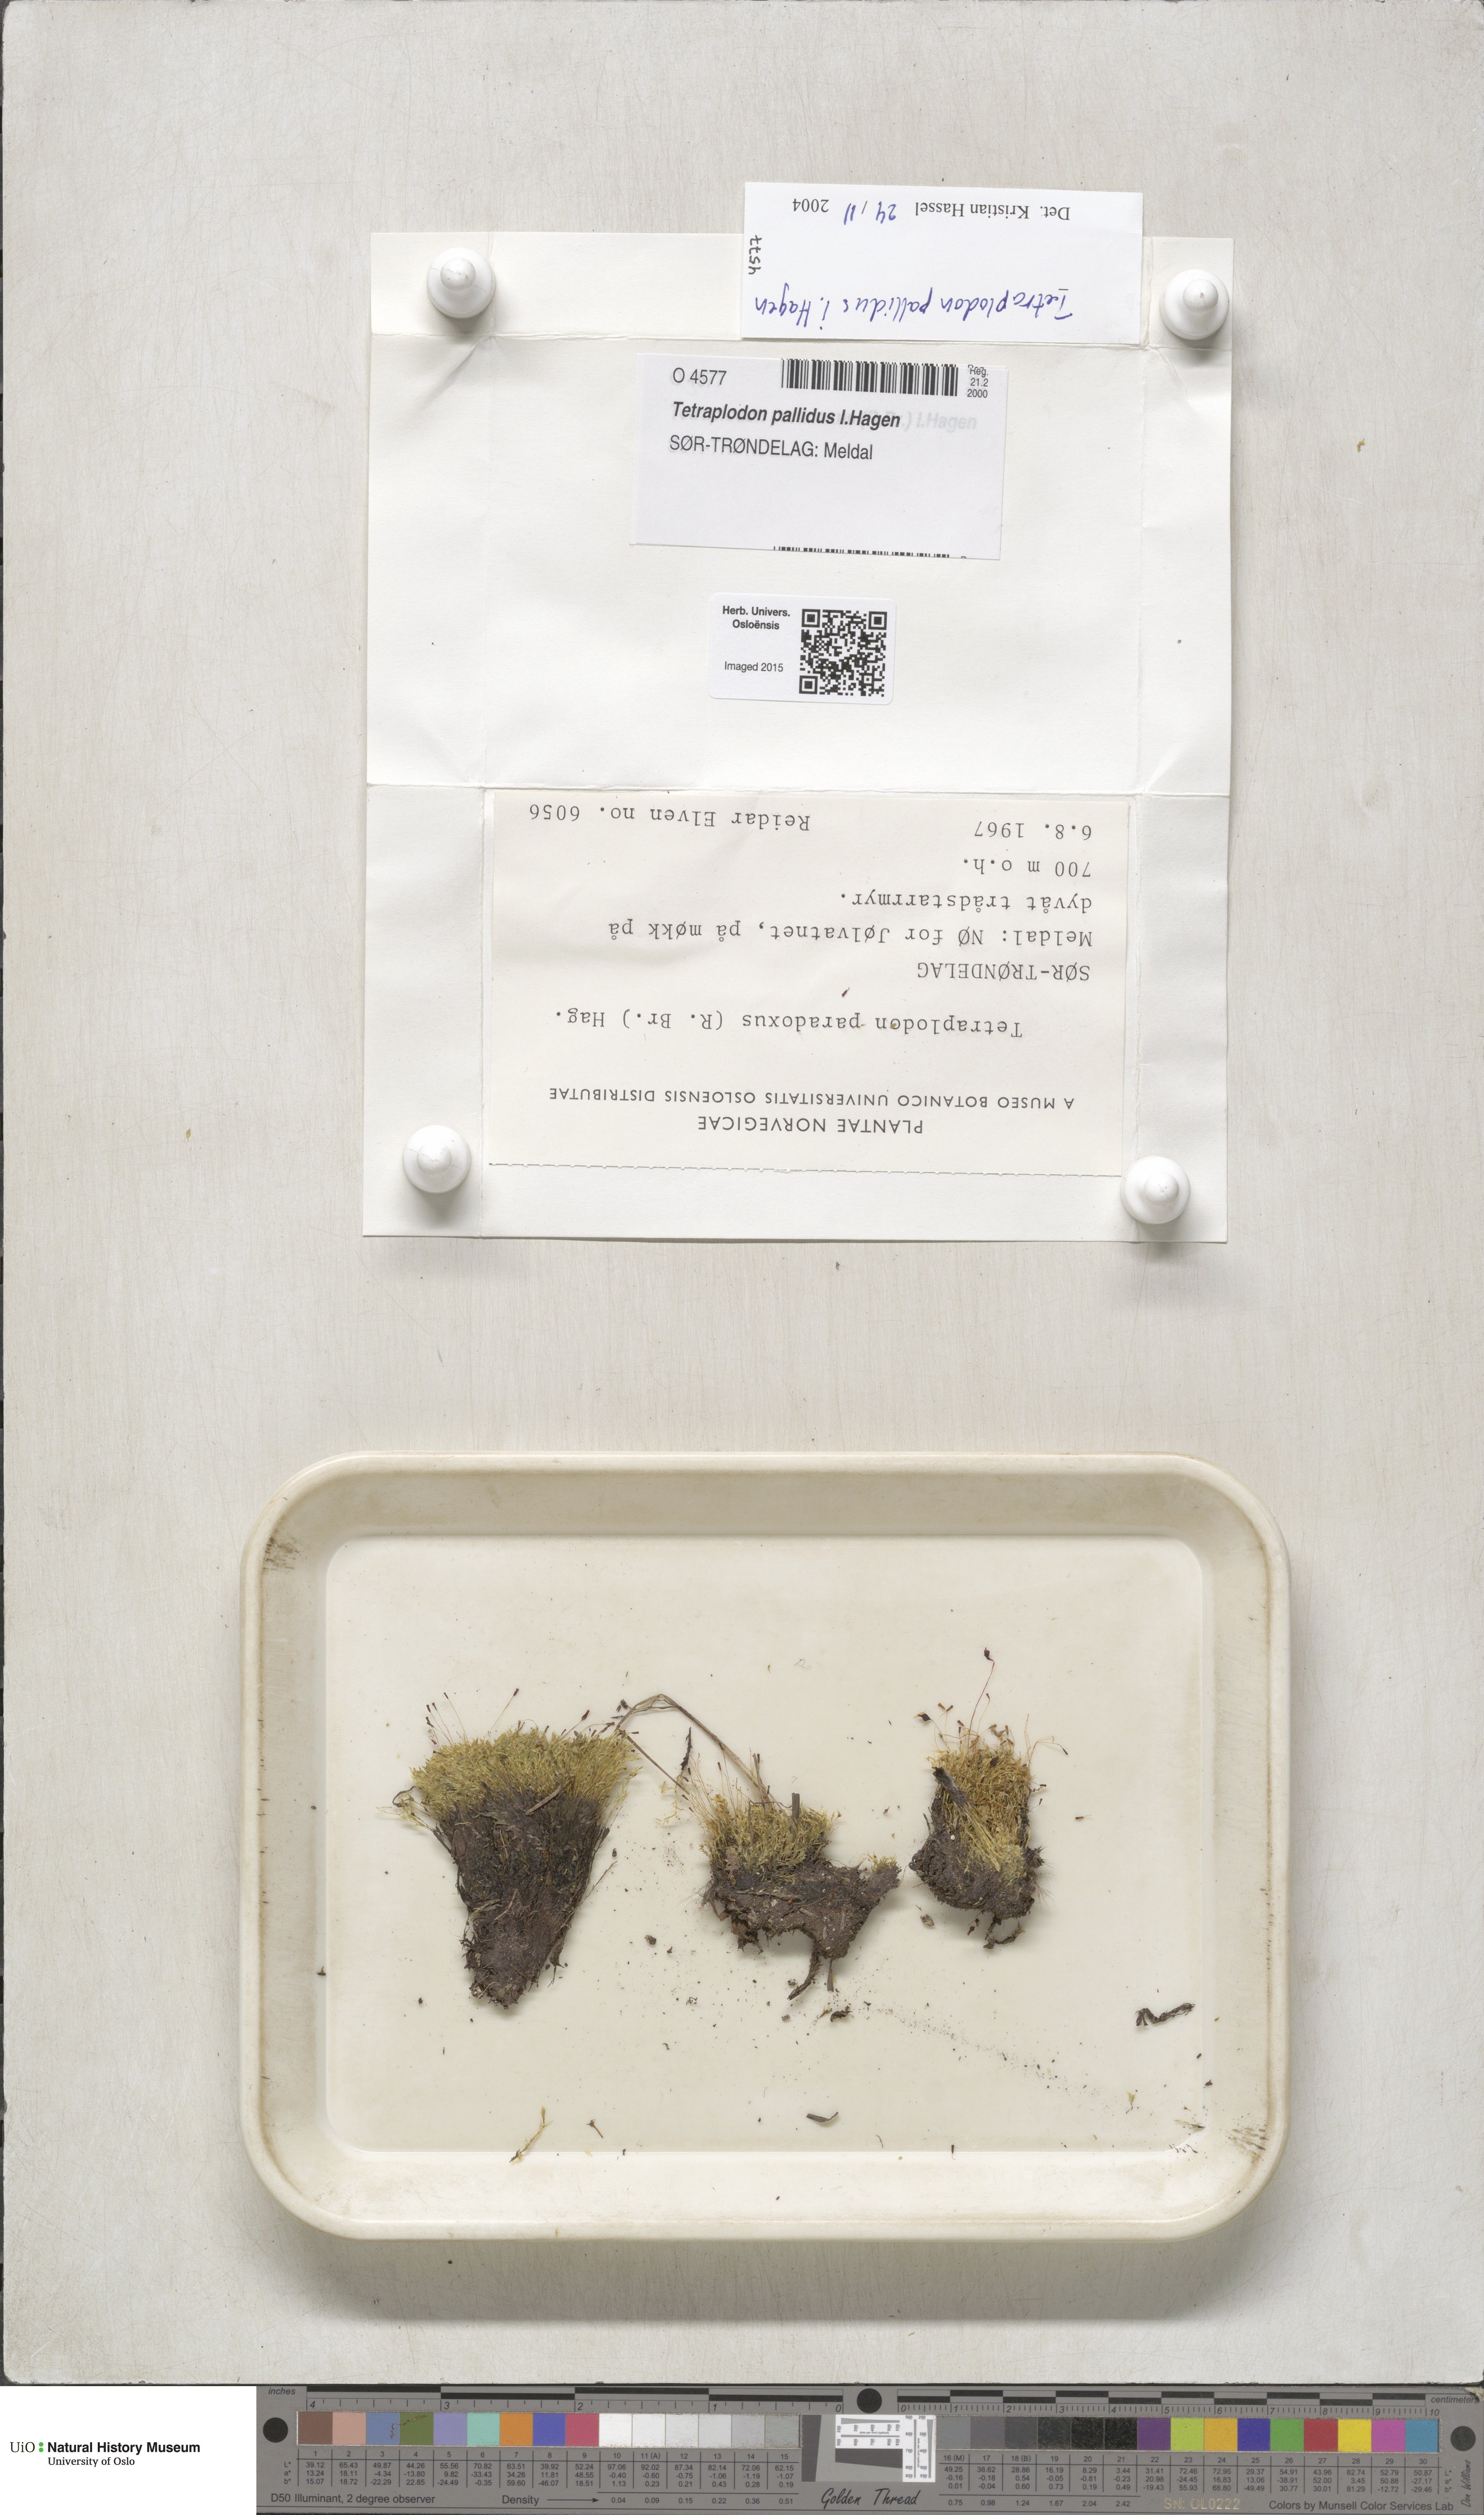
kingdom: Plantae
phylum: Bryophyta
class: Bryopsida
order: Splachnales
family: Splachnaceae
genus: Tetraplodon
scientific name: Tetraplodon pallidus
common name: Pale nitrogen moss
